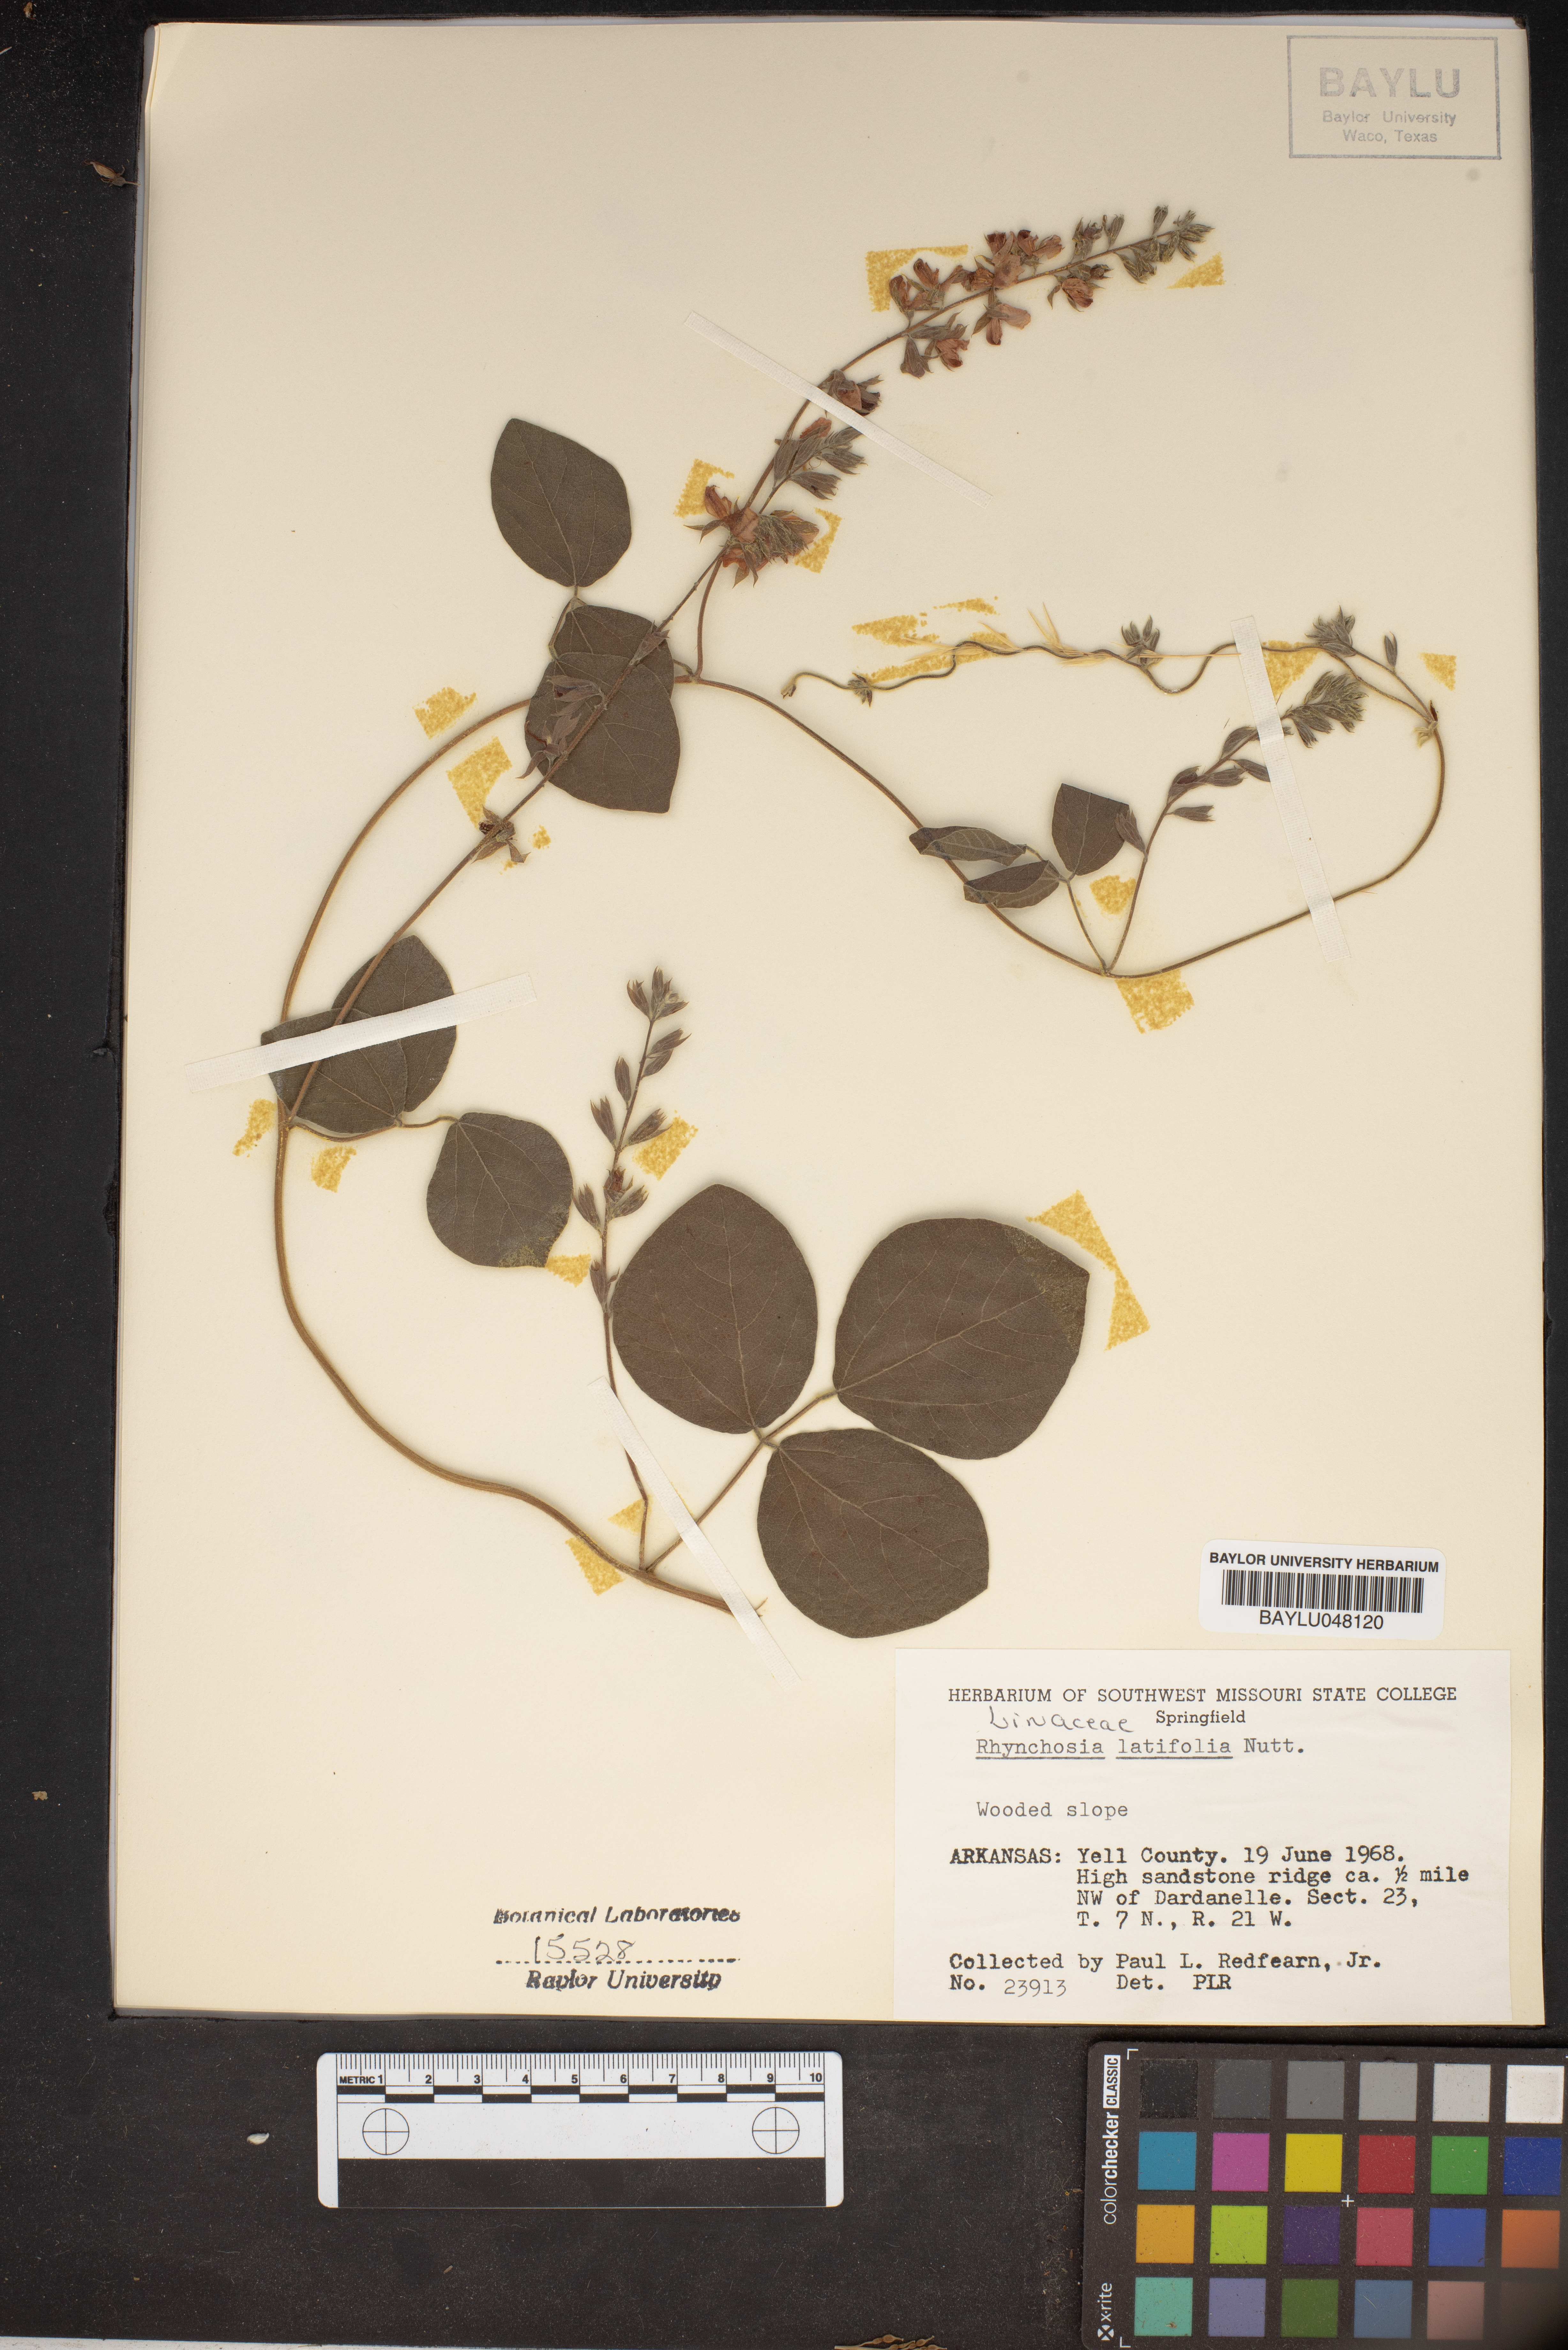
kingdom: Plantae
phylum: Tracheophyta
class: Magnoliopsida
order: Fabales
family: Fabaceae
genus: Rhynchosia
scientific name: Rhynchosia latifolia
